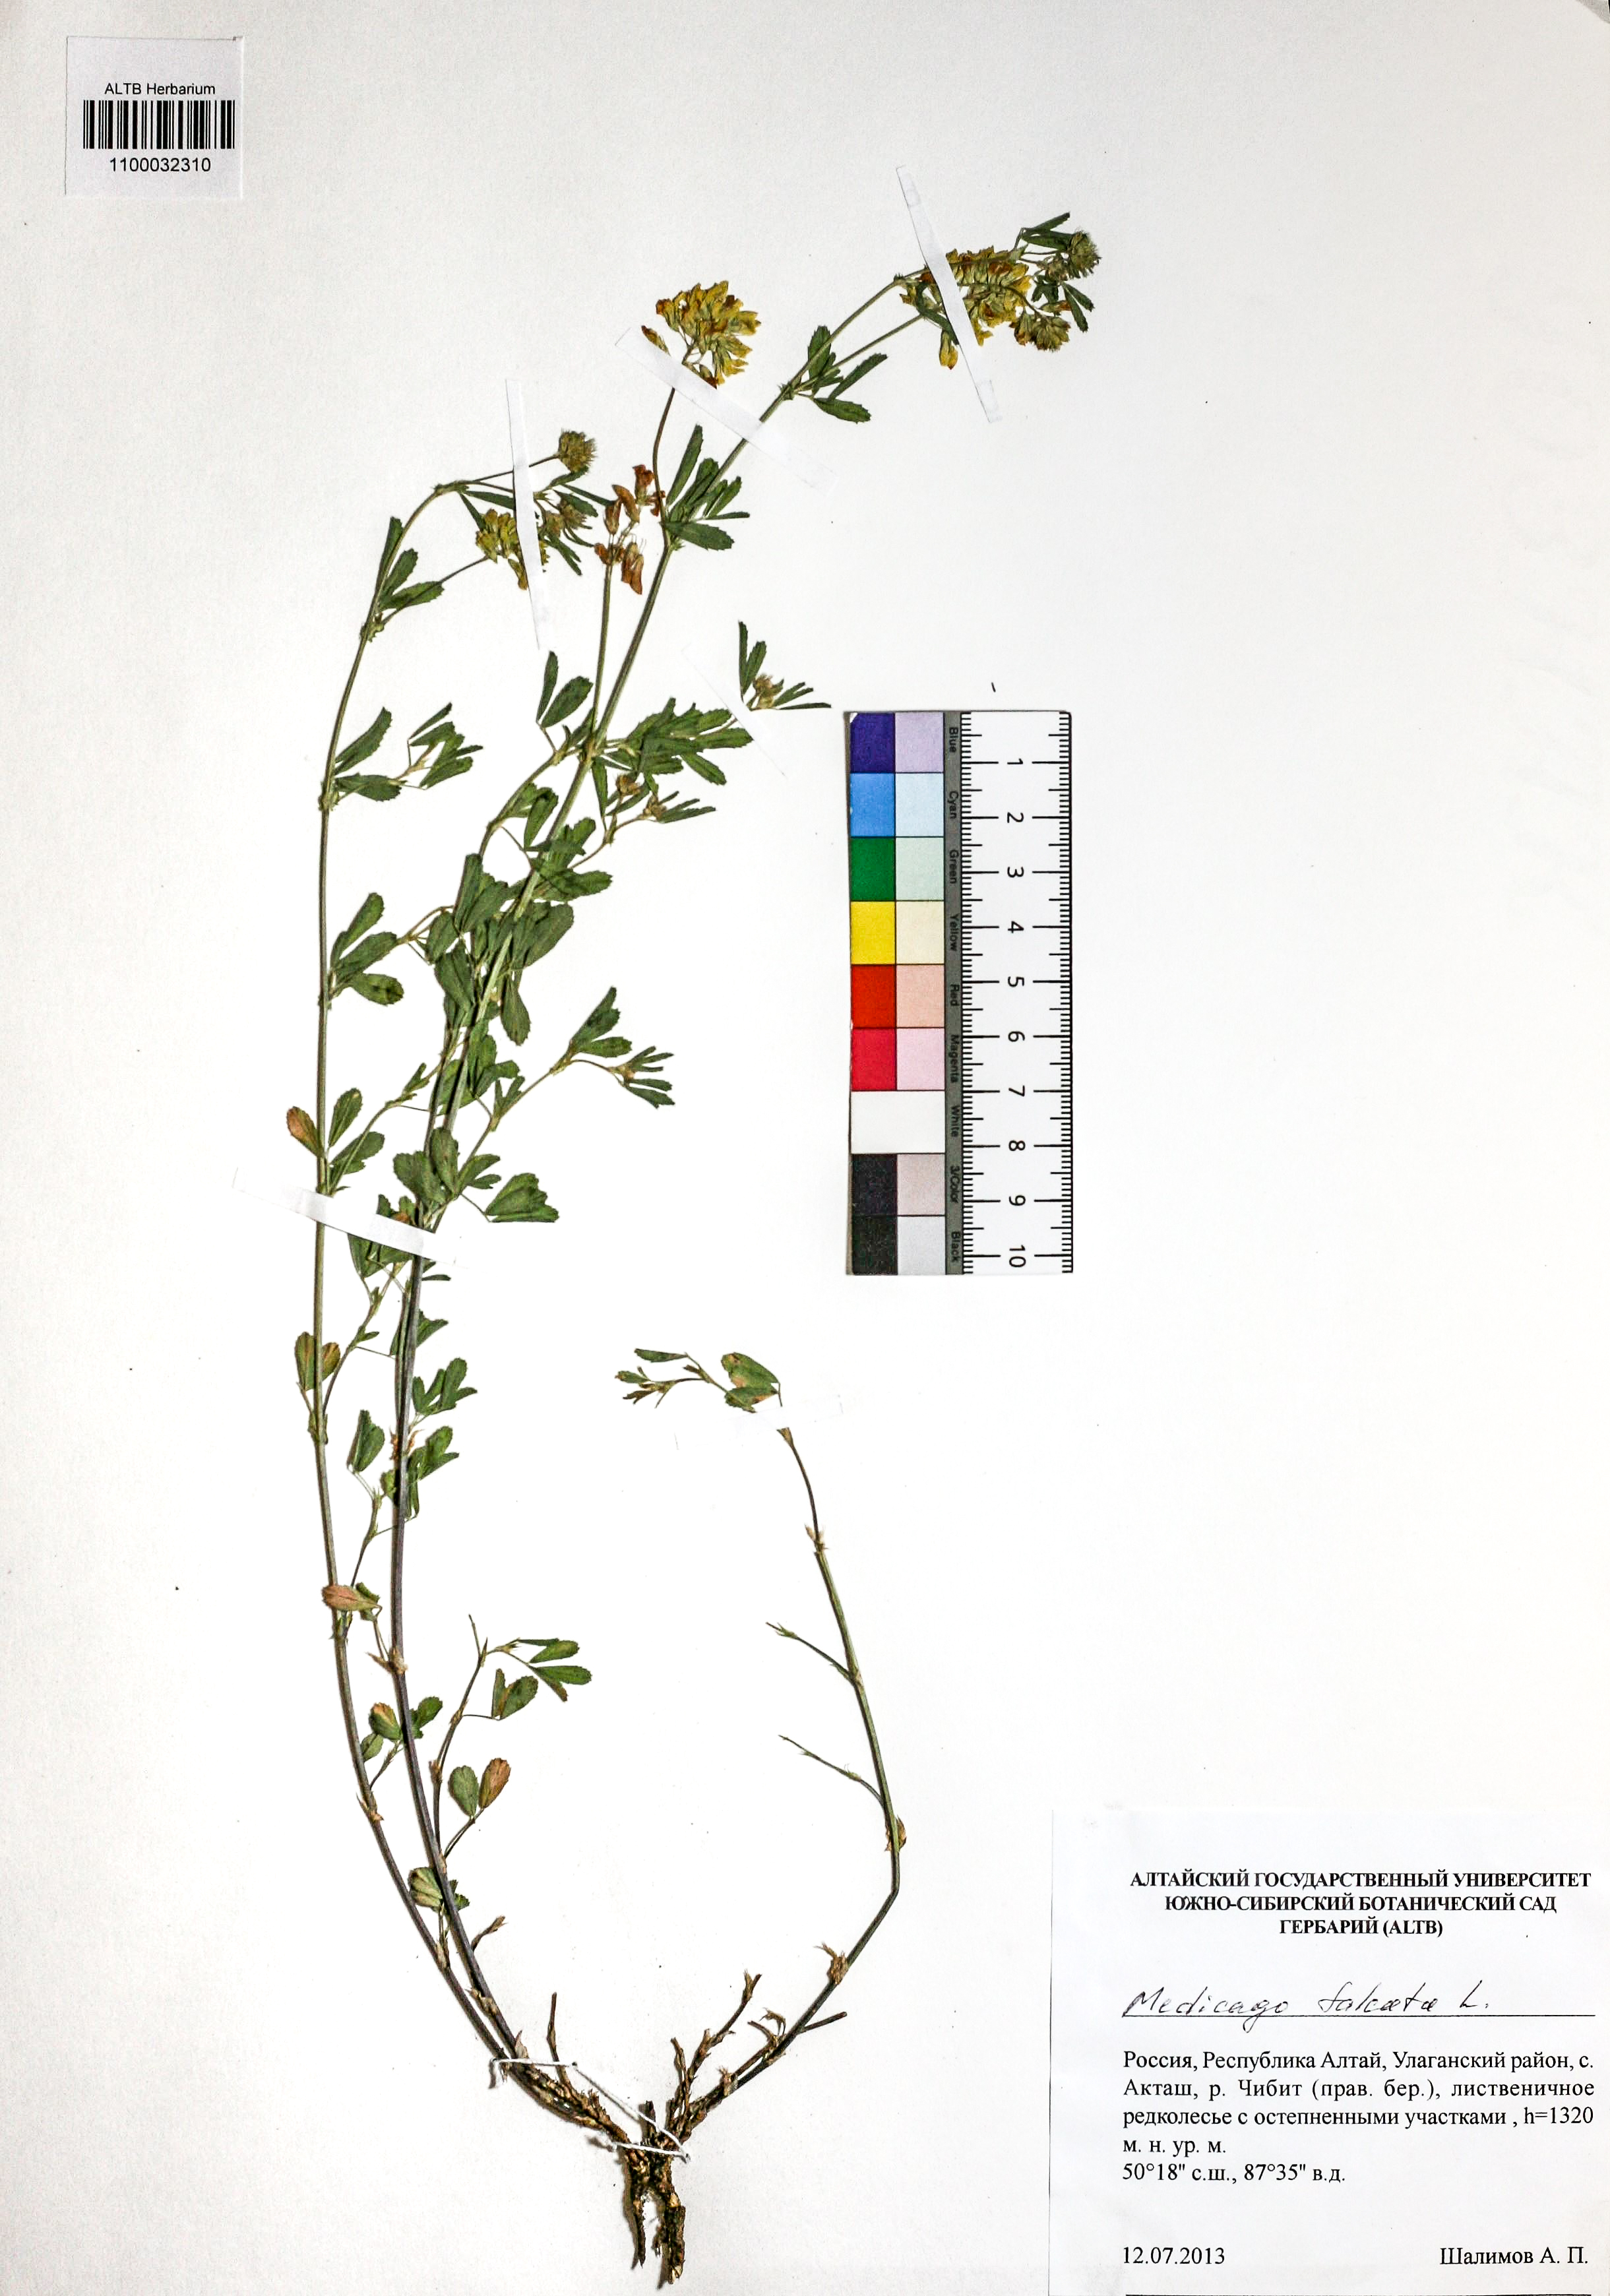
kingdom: Plantae
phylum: Tracheophyta
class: Magnoliopsida
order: Fabales
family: Fabaceae
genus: Medicago
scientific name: Medicago falcata
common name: Sickle medick
